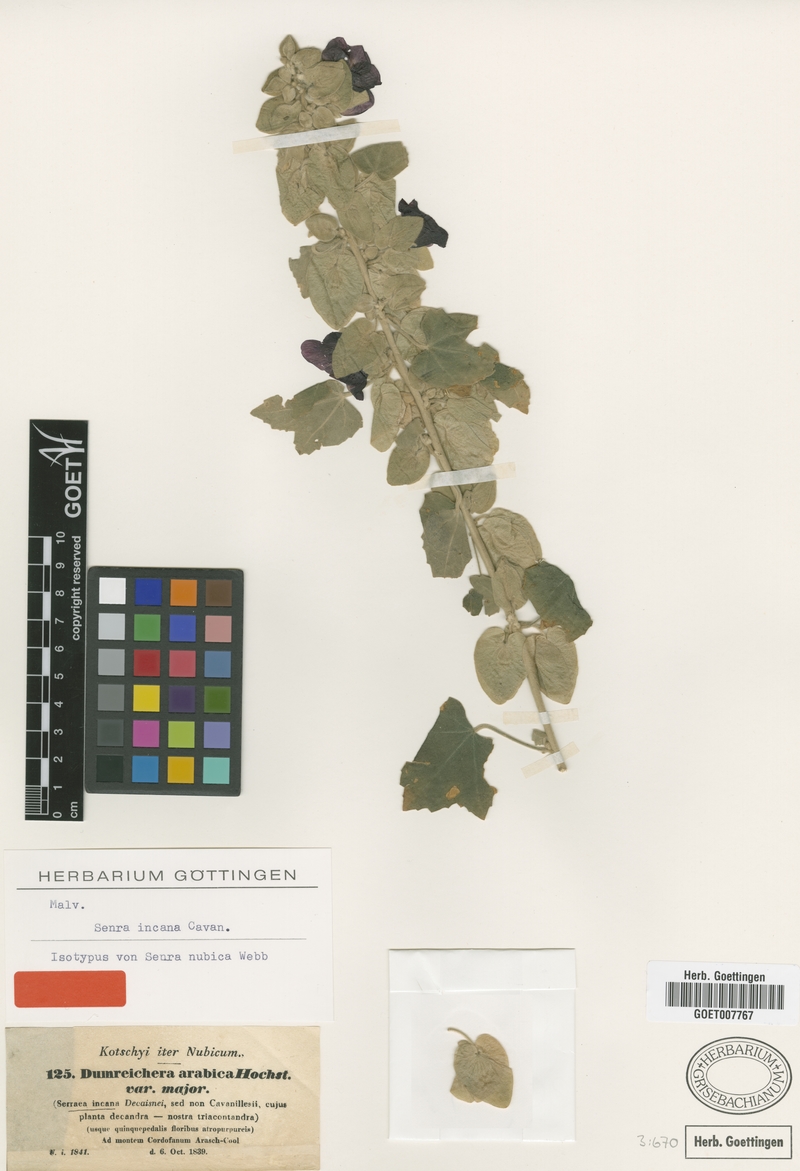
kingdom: Plantae
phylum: Tracheophyta
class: Magnoliopsida
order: Malvales
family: Malvaceae
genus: Senra
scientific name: Senra incana
